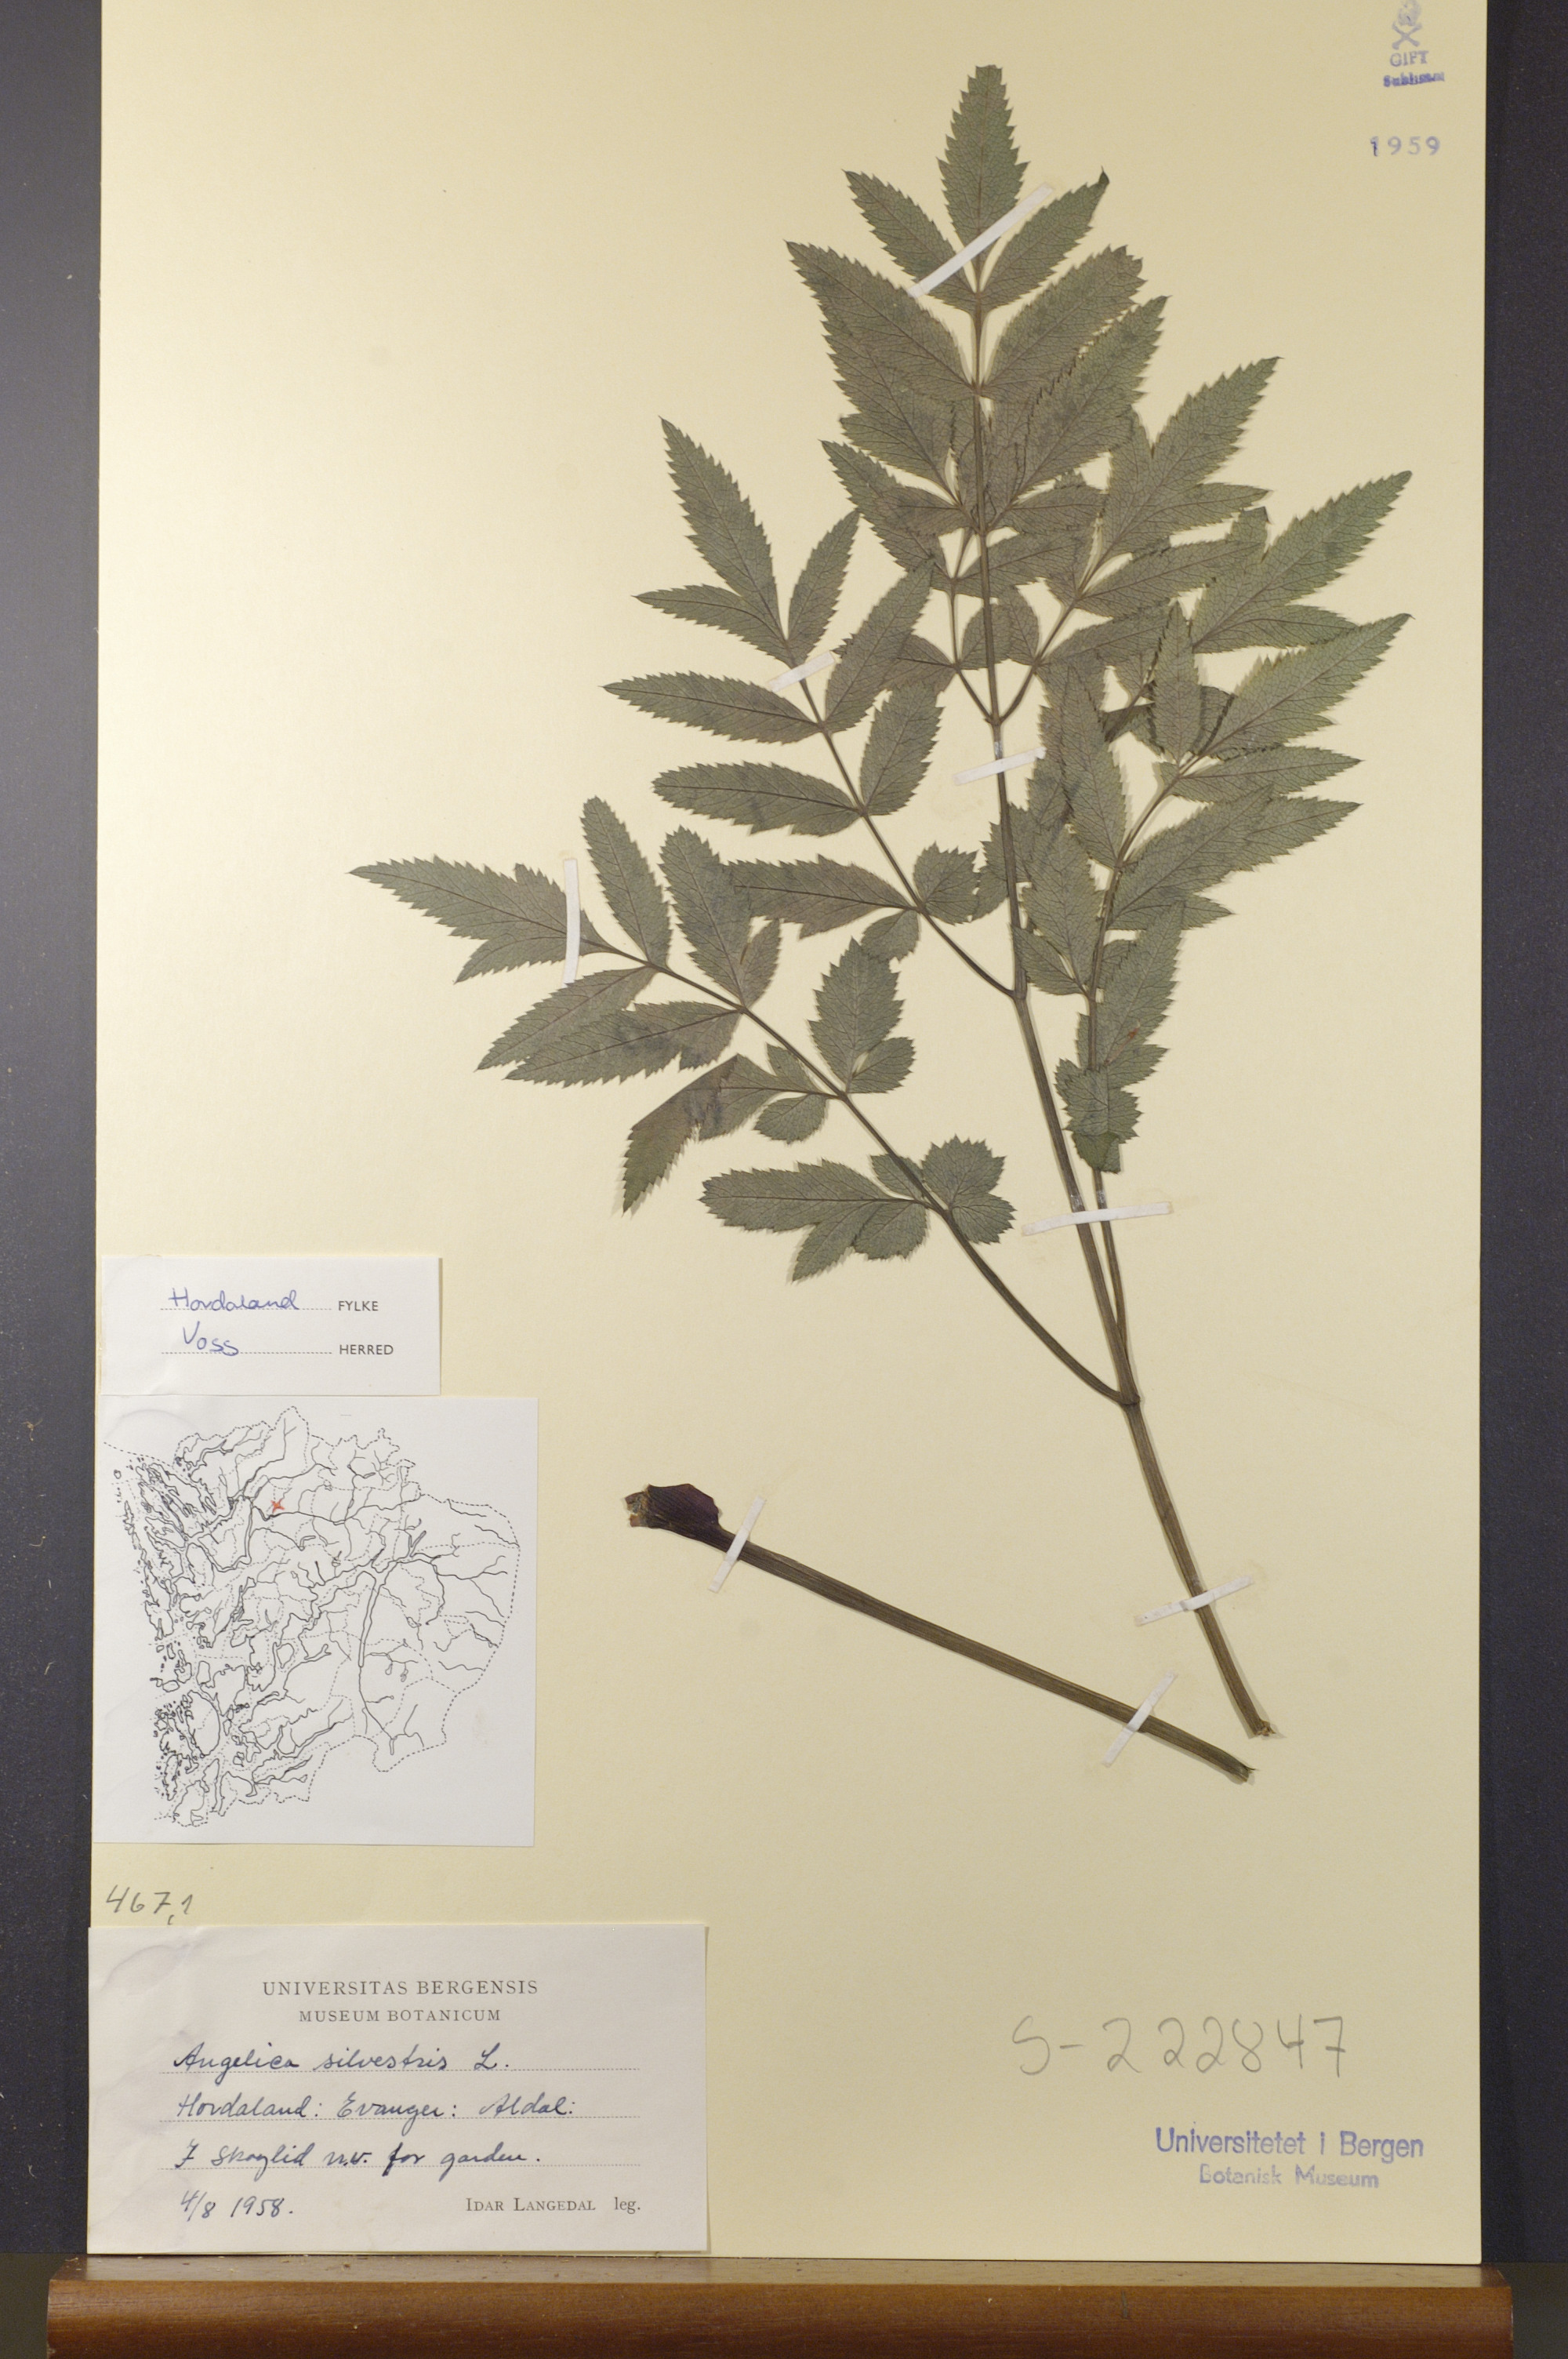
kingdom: Plantae
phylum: Tracheophyta
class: Magnoliopsida
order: Apiales
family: Apiaceae
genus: Angelica
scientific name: Angelica sylvestris
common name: Wild angelica
